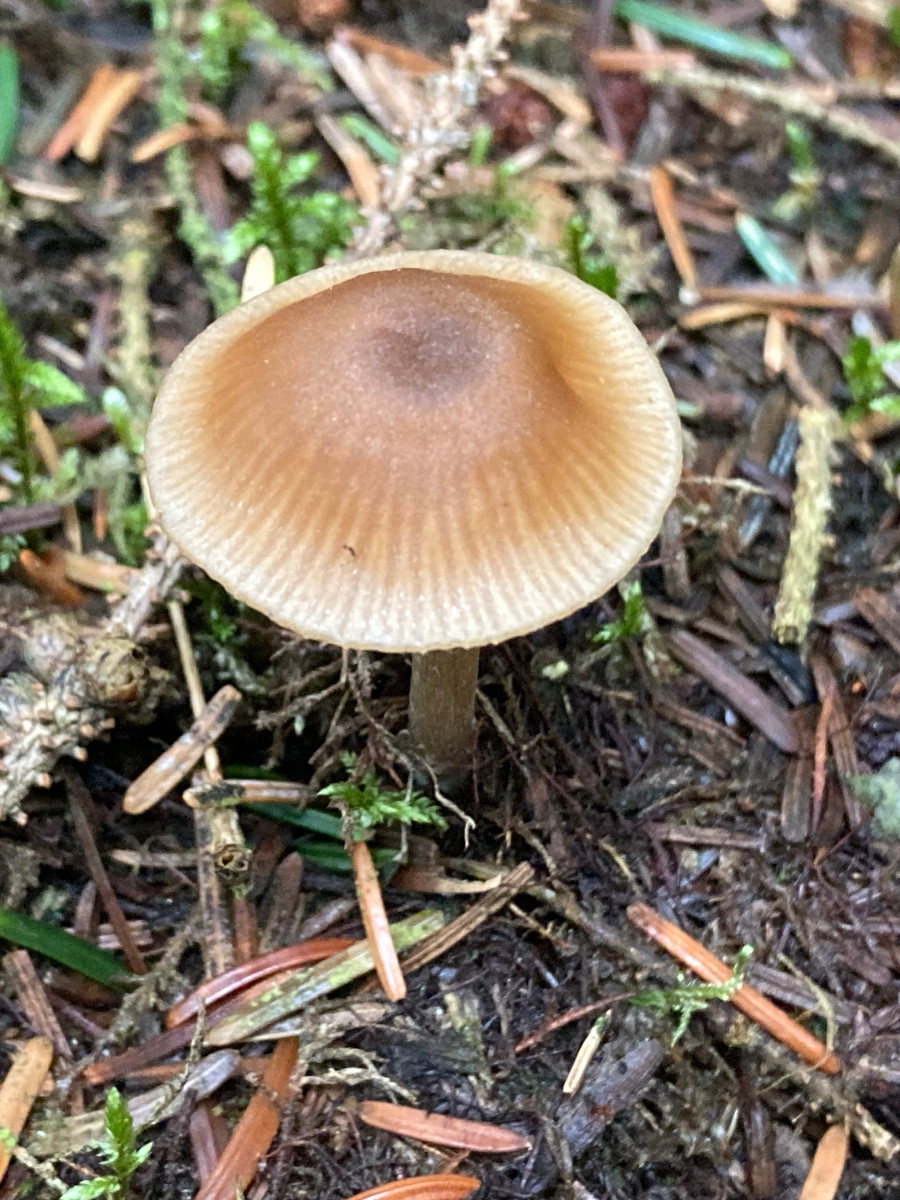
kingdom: Fungi
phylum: Basidiomycota
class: Agaricomycetes
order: Agaricales
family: Entolomataceae
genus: Entoloma
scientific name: Entoloma cetratum
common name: voks-rødblad
